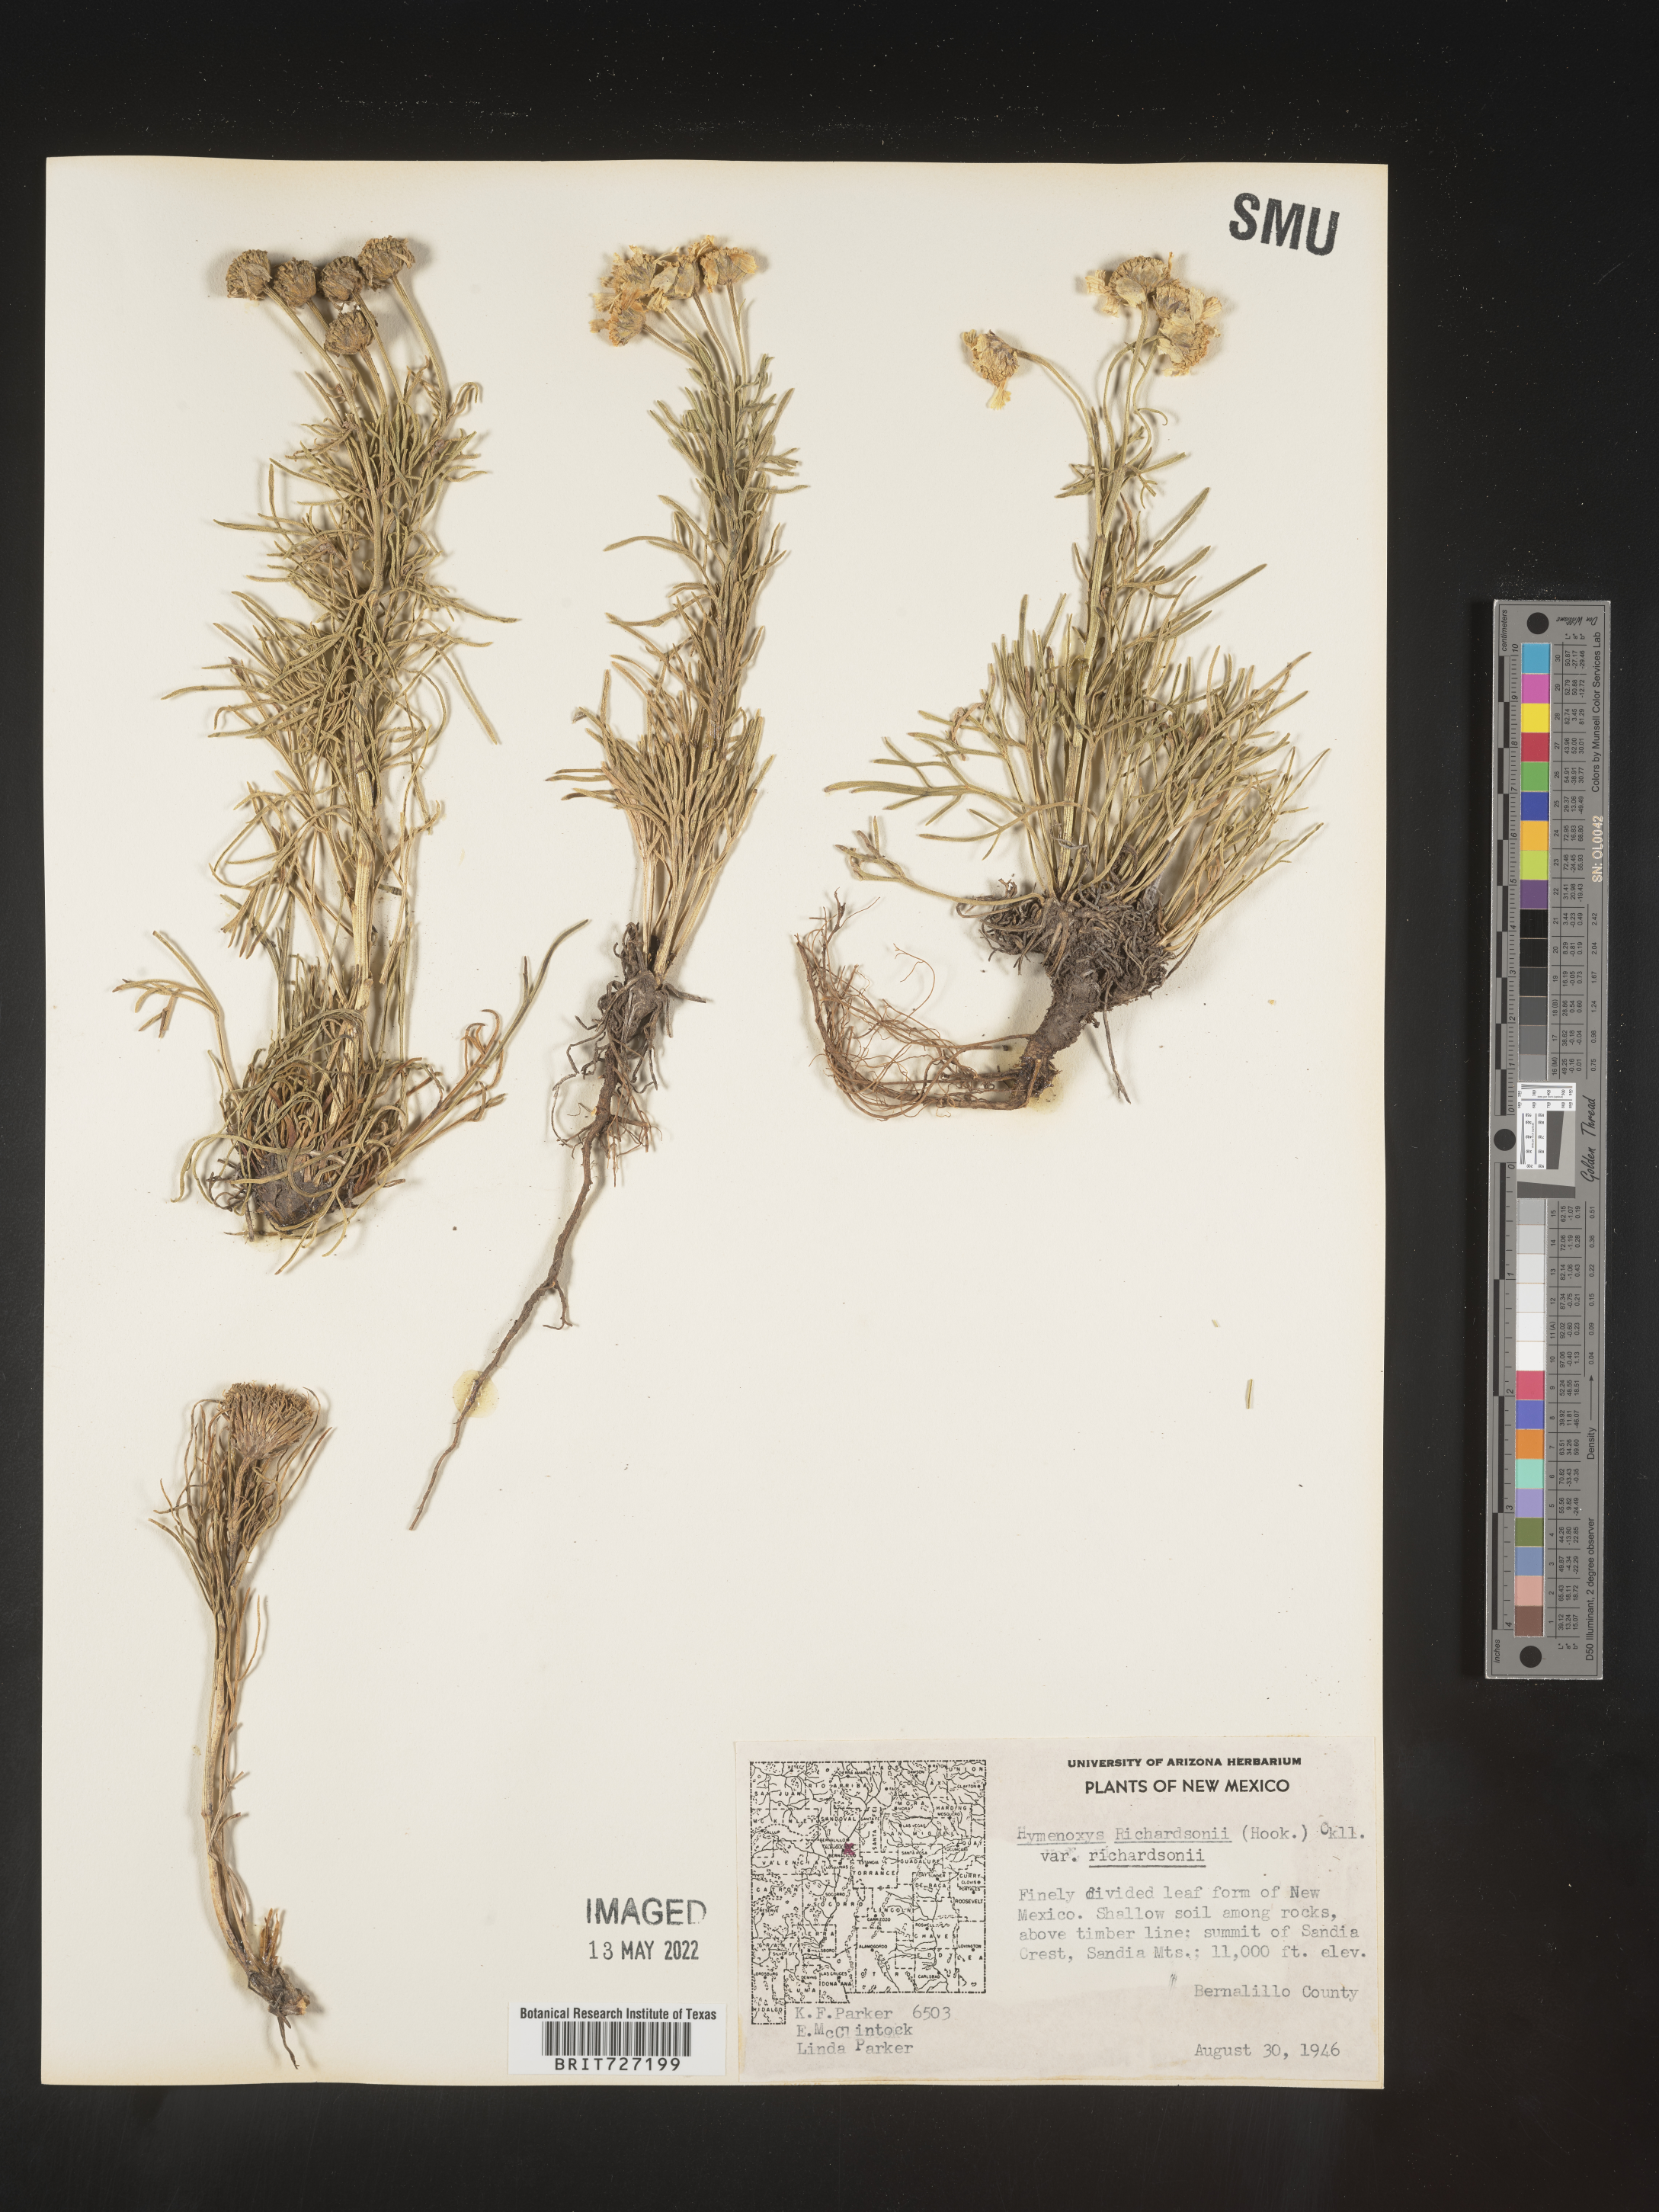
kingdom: Plantae
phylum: Tracheophyta
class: Magnoliopsida
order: Asterales
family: Asteraceae
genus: Hymenoxys
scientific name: Hymenoxys richardsonii
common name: Pingue rubberweed
